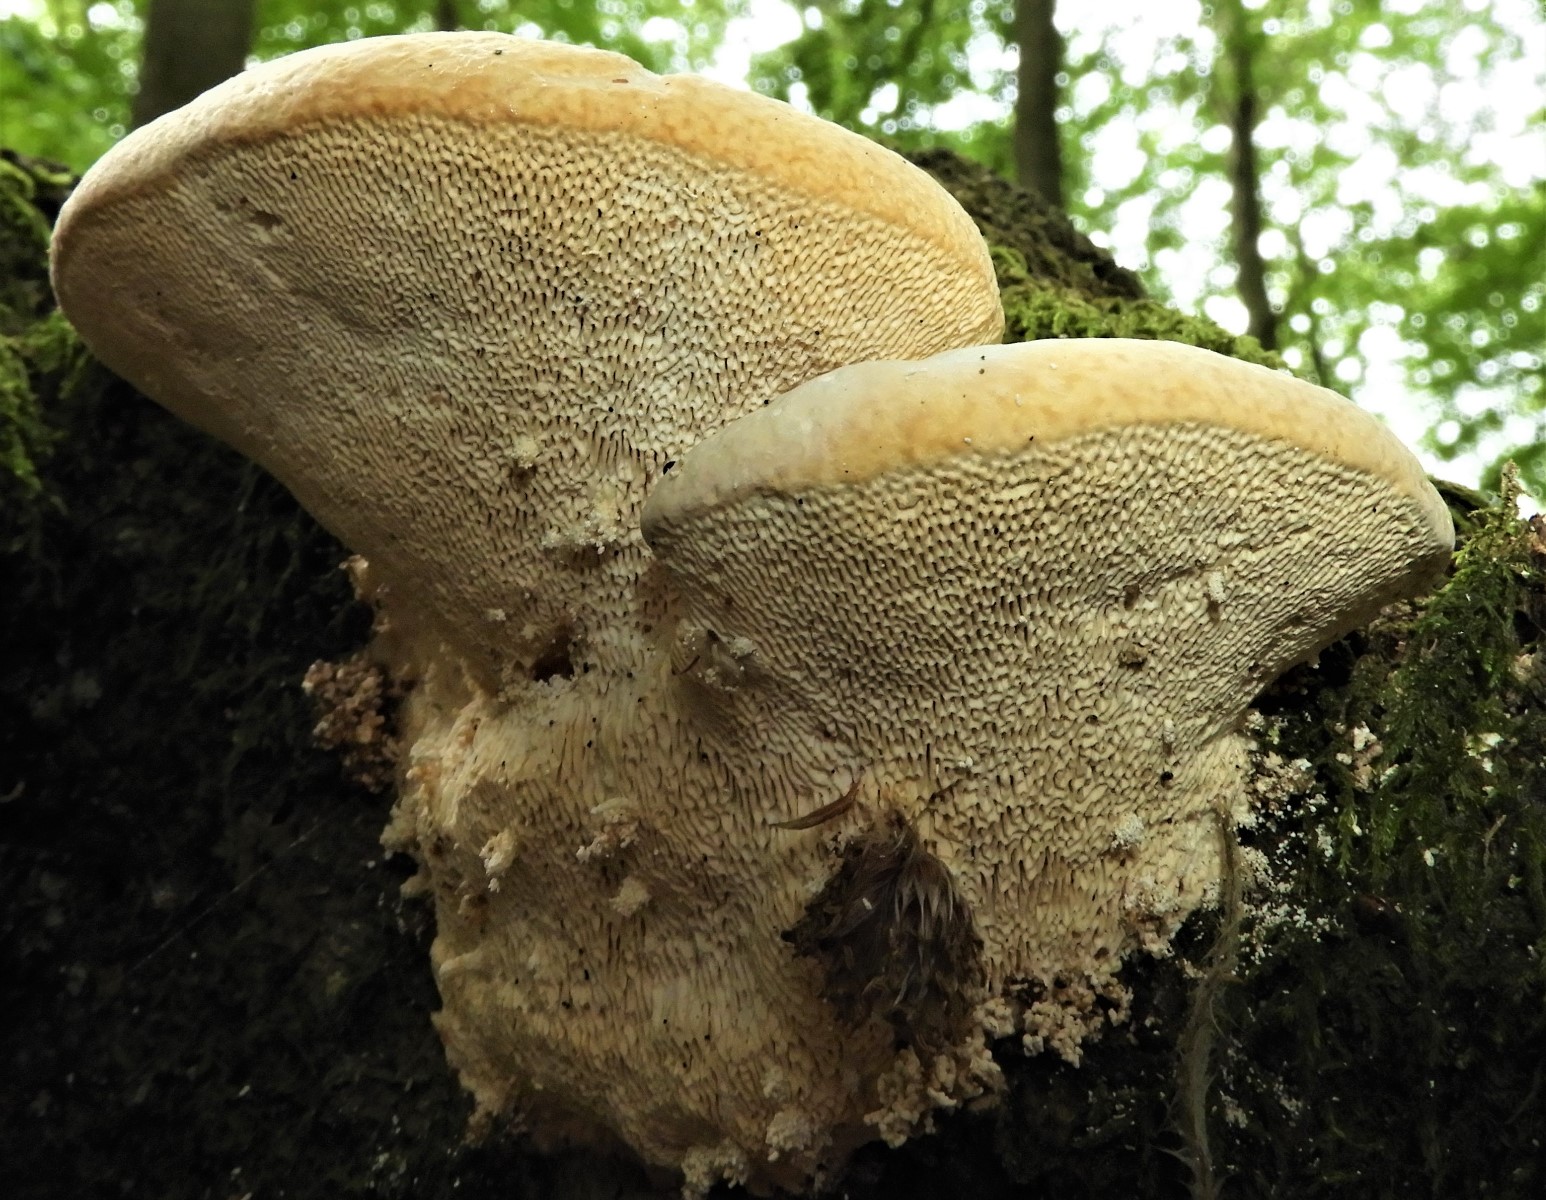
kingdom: Fungi
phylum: Basidiomycota
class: Agaricomycetes
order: Polyporales
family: Polyporaceae
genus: Trametes
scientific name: Trametes gibbosa
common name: puklet læderporesvamp
